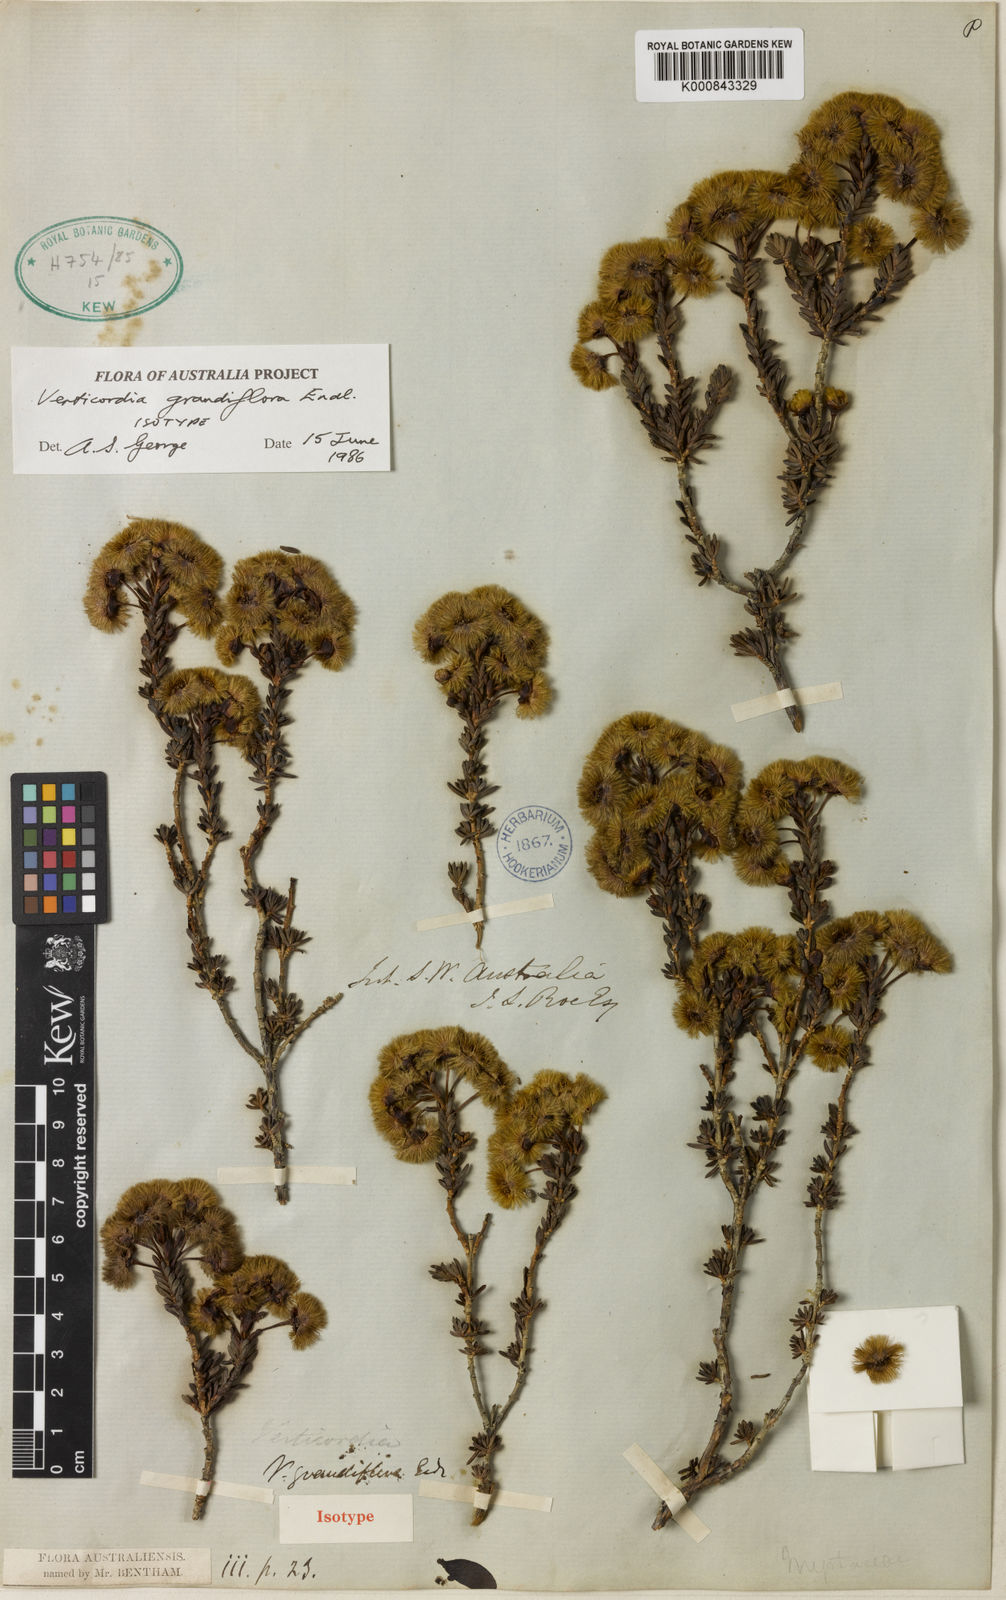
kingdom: Plantae
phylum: Tracheophyta
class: Magnoliopsida
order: Myrtales
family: Myrtaceae
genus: Verticordia
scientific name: Verticordia grandiflora
